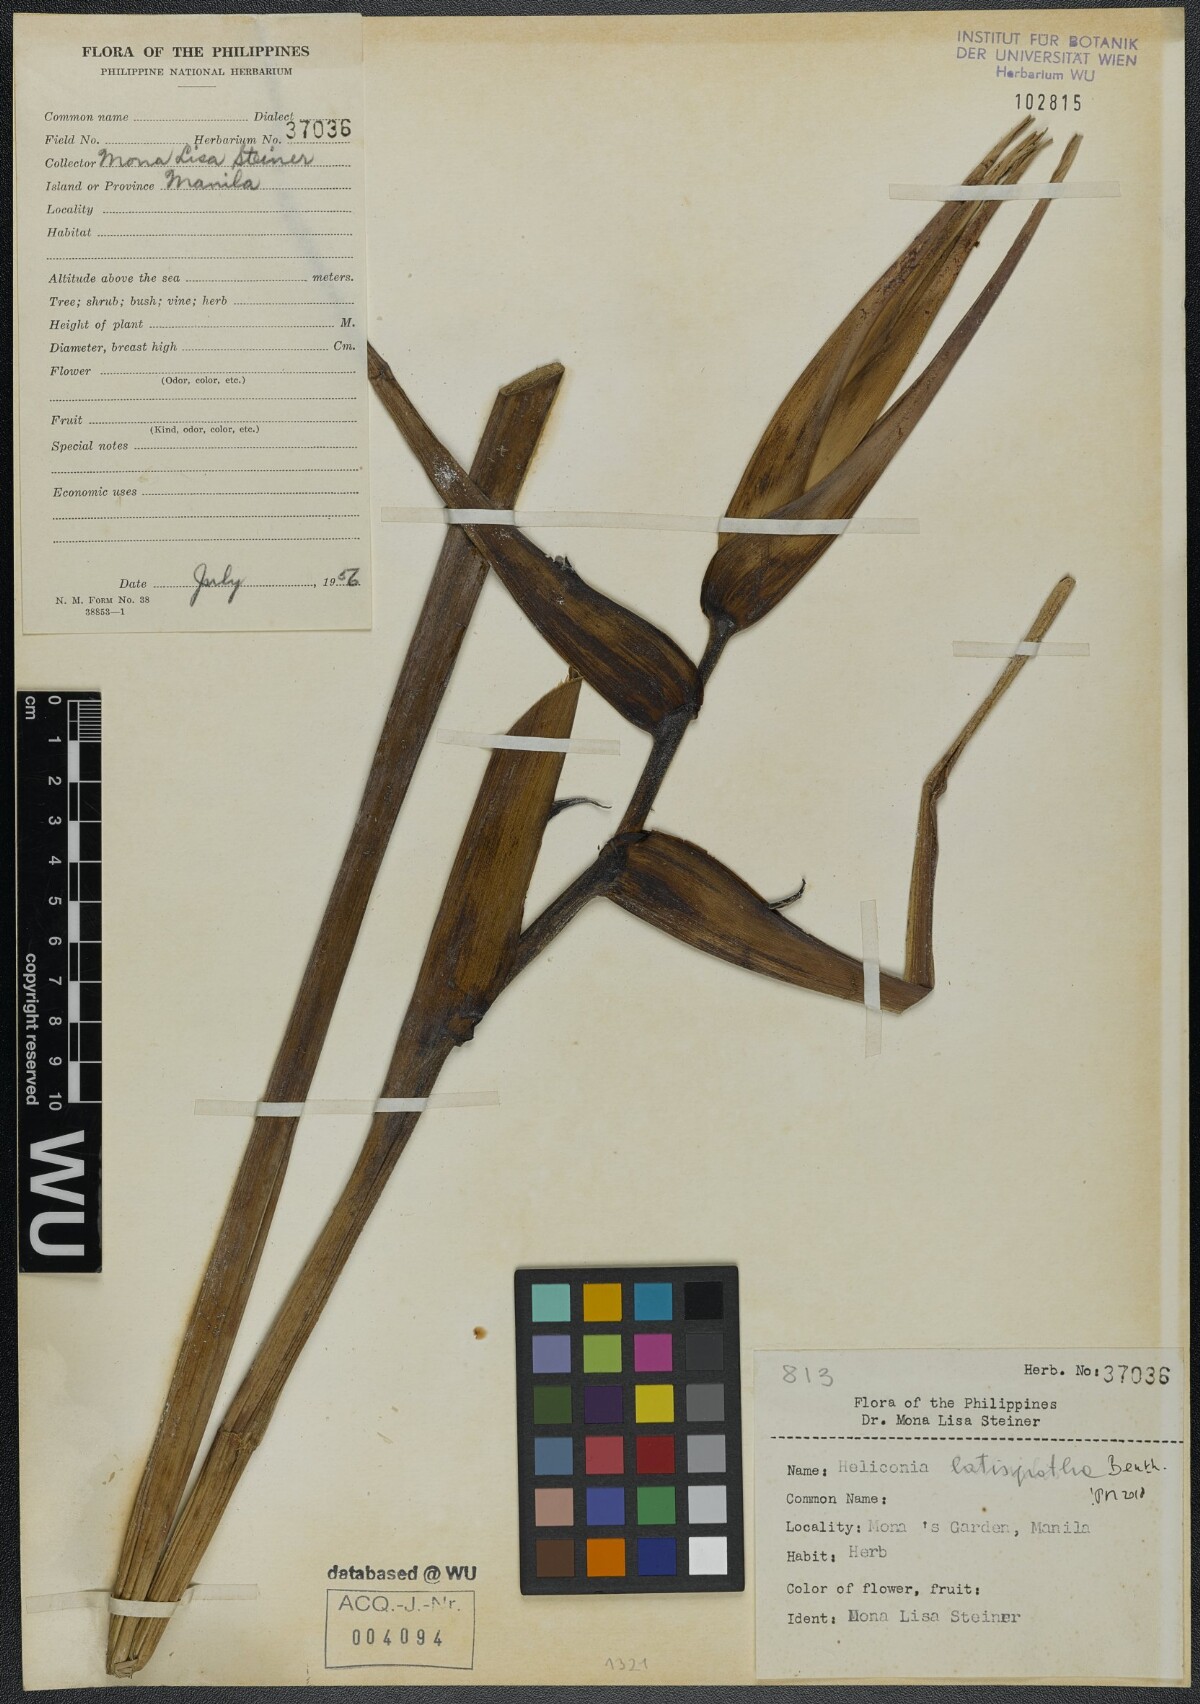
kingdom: Plantae
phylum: Tracheophyta
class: Liliopsida
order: Zingiberales
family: Heliconiaceae
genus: Heliconia
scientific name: Heliconia latispatha
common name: Expanded lobsterclaw
